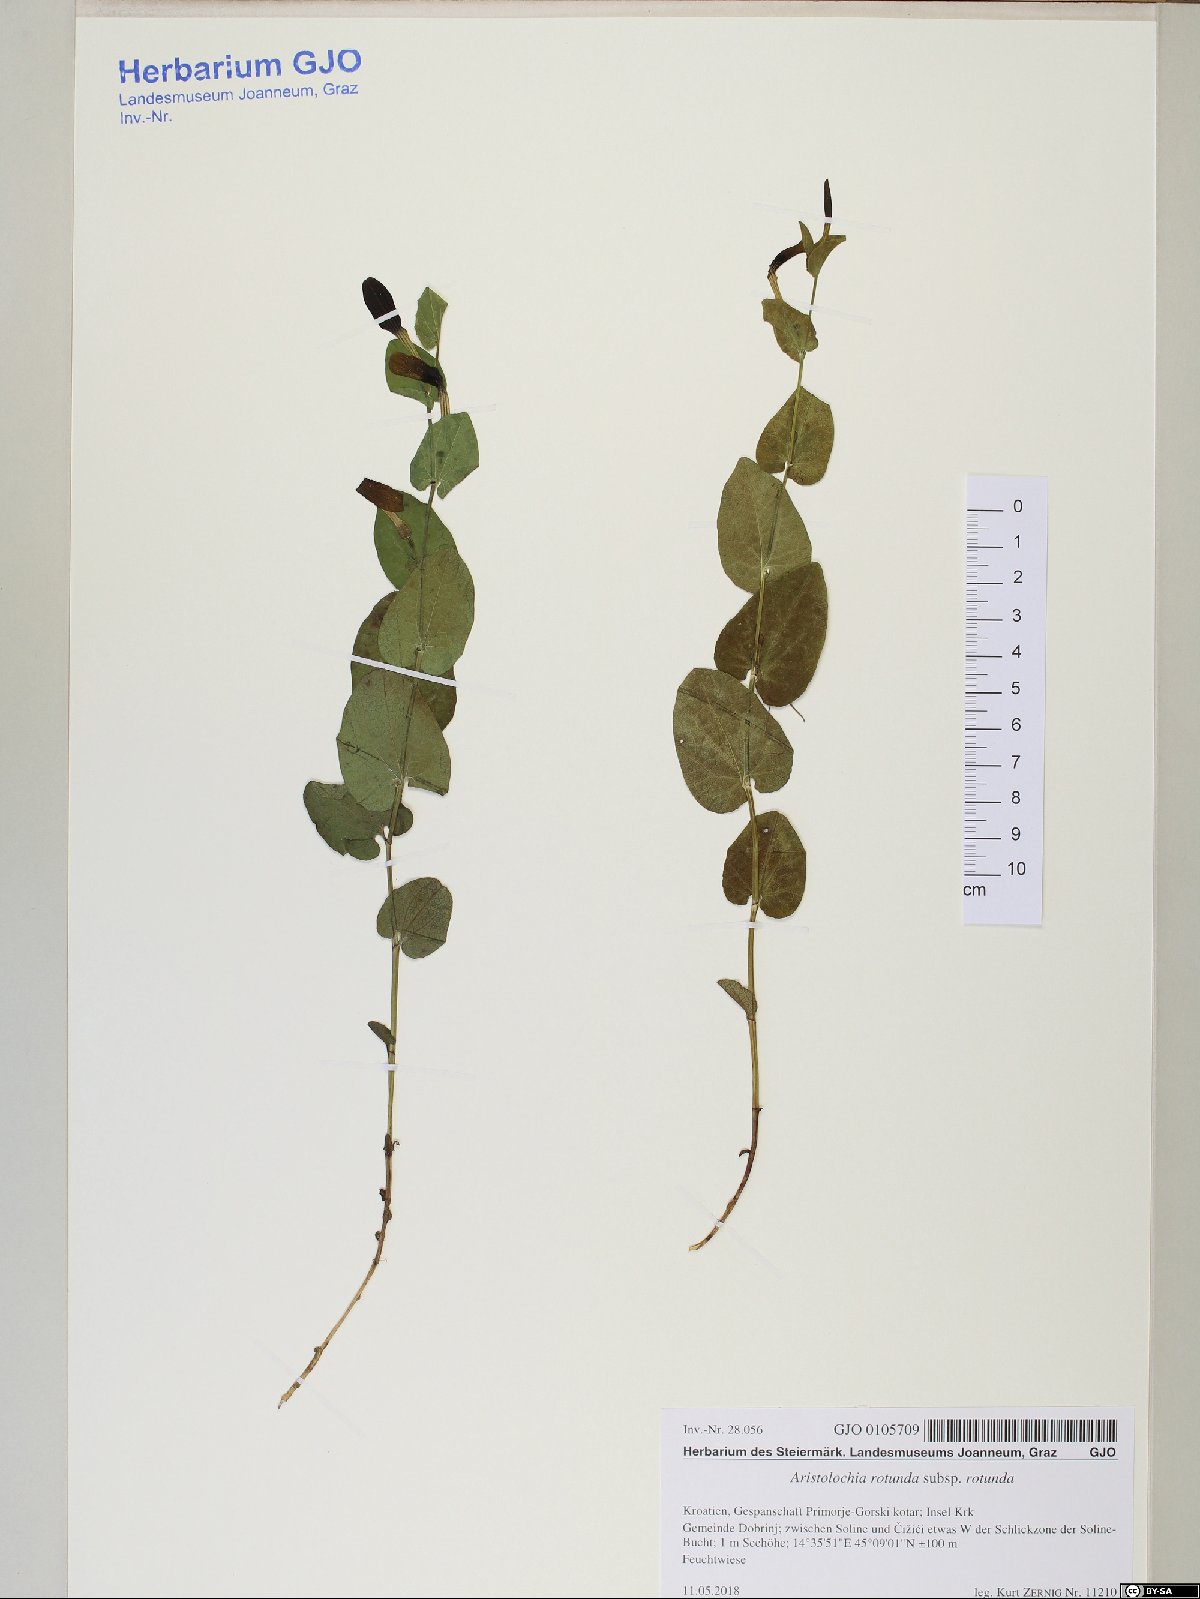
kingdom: Plantae
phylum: Tracheophyta
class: Magnoliopsida
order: Piperales
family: Aristolochiaceae
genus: Aristolochia
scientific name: Aristolochia rotunda
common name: Smearwort
